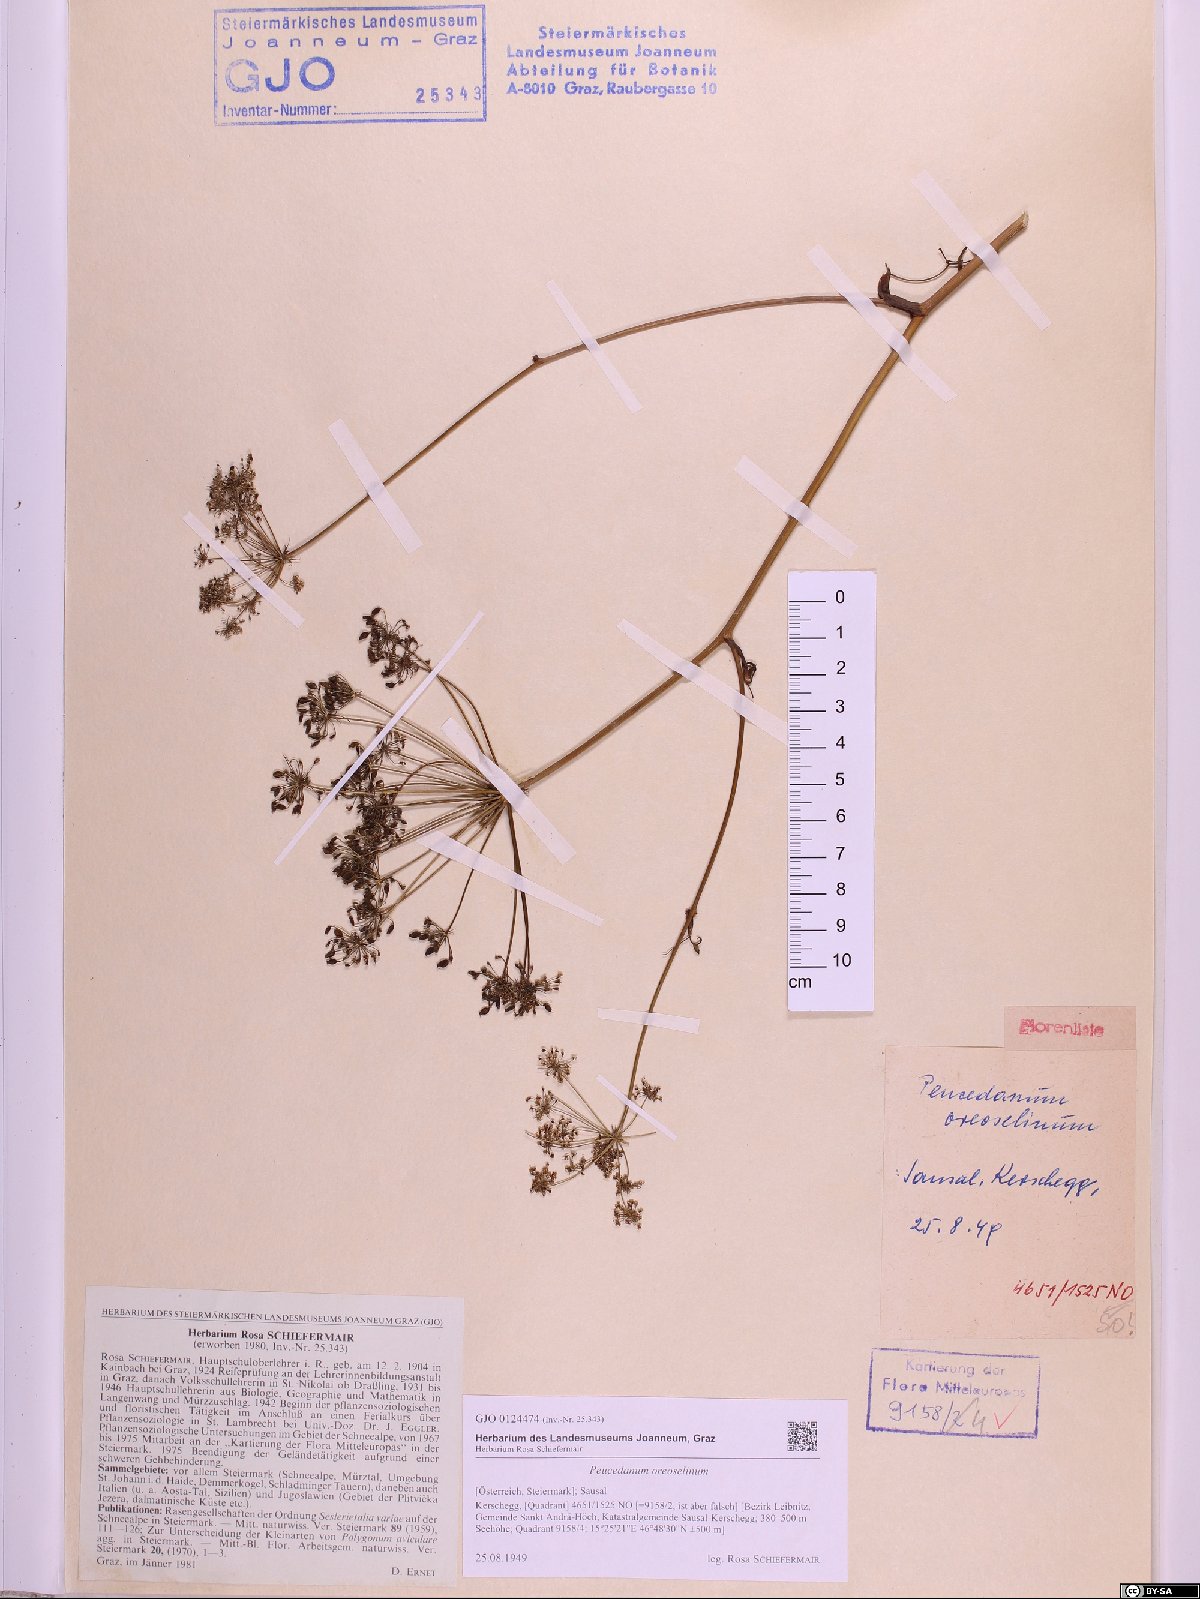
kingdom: Plantae
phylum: Tracheophyta
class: Magnoliopsida
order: Apiales
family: Apiaceae
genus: Oreoselinum
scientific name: Oreoselinum nigrum
